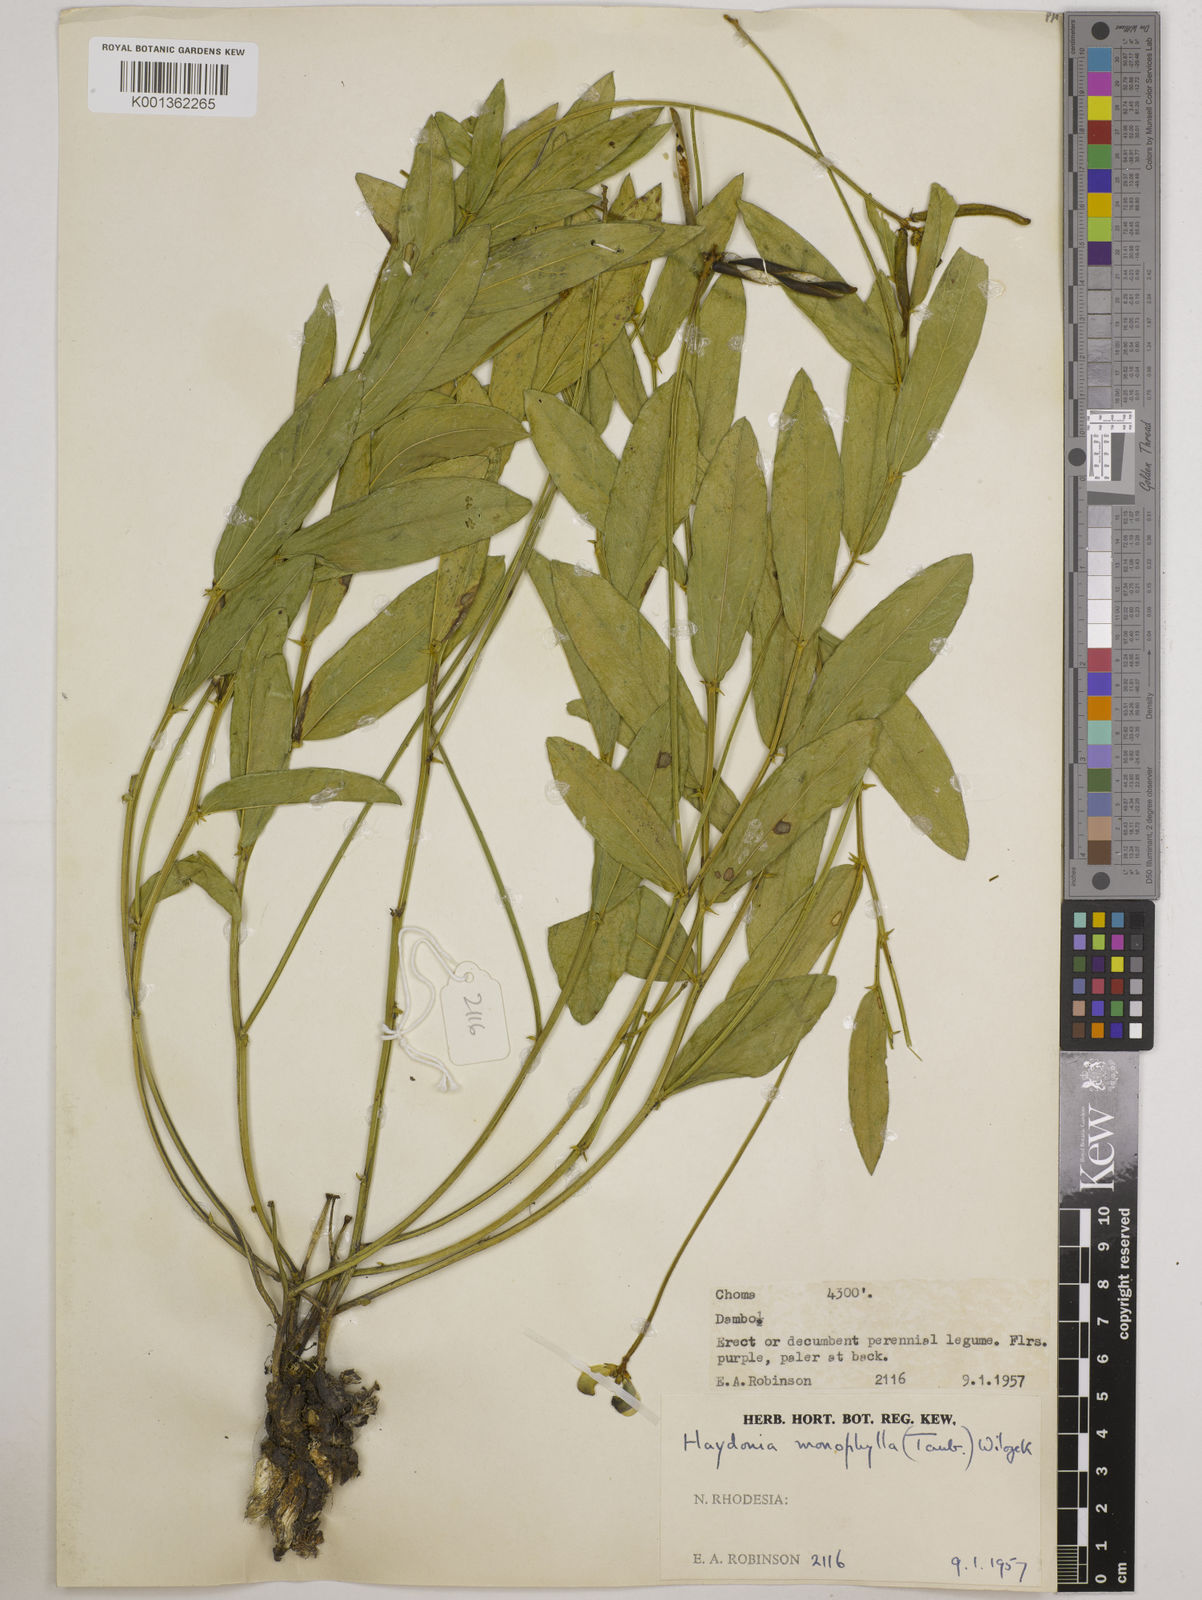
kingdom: Plantae
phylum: Tracheophyta
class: Magnoliopsida
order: Fabales
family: Fabaceae
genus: Vigna
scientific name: Vigna monophylla
